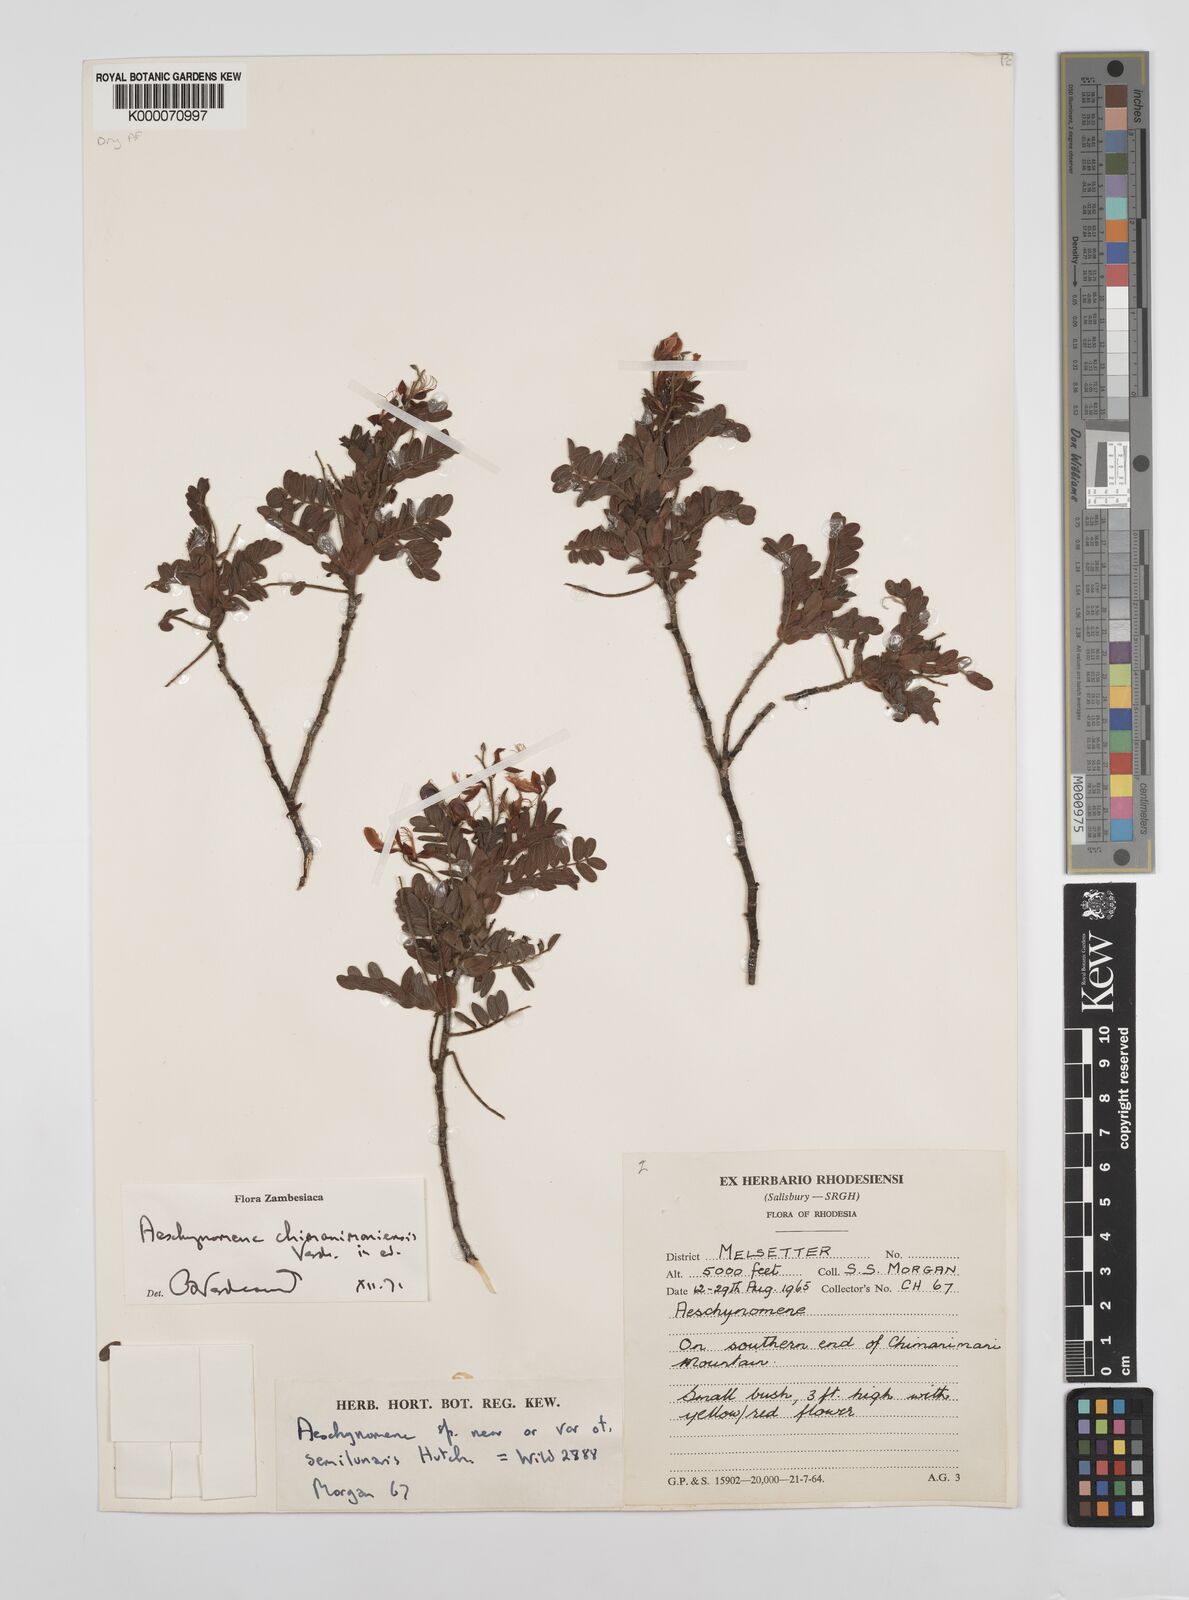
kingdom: Plantae
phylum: Tracheophyta
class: Magnoliopsida
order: Fabales
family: Fabaceae
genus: Aeschynomene
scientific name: Aeschynomene chimanimaniensis
